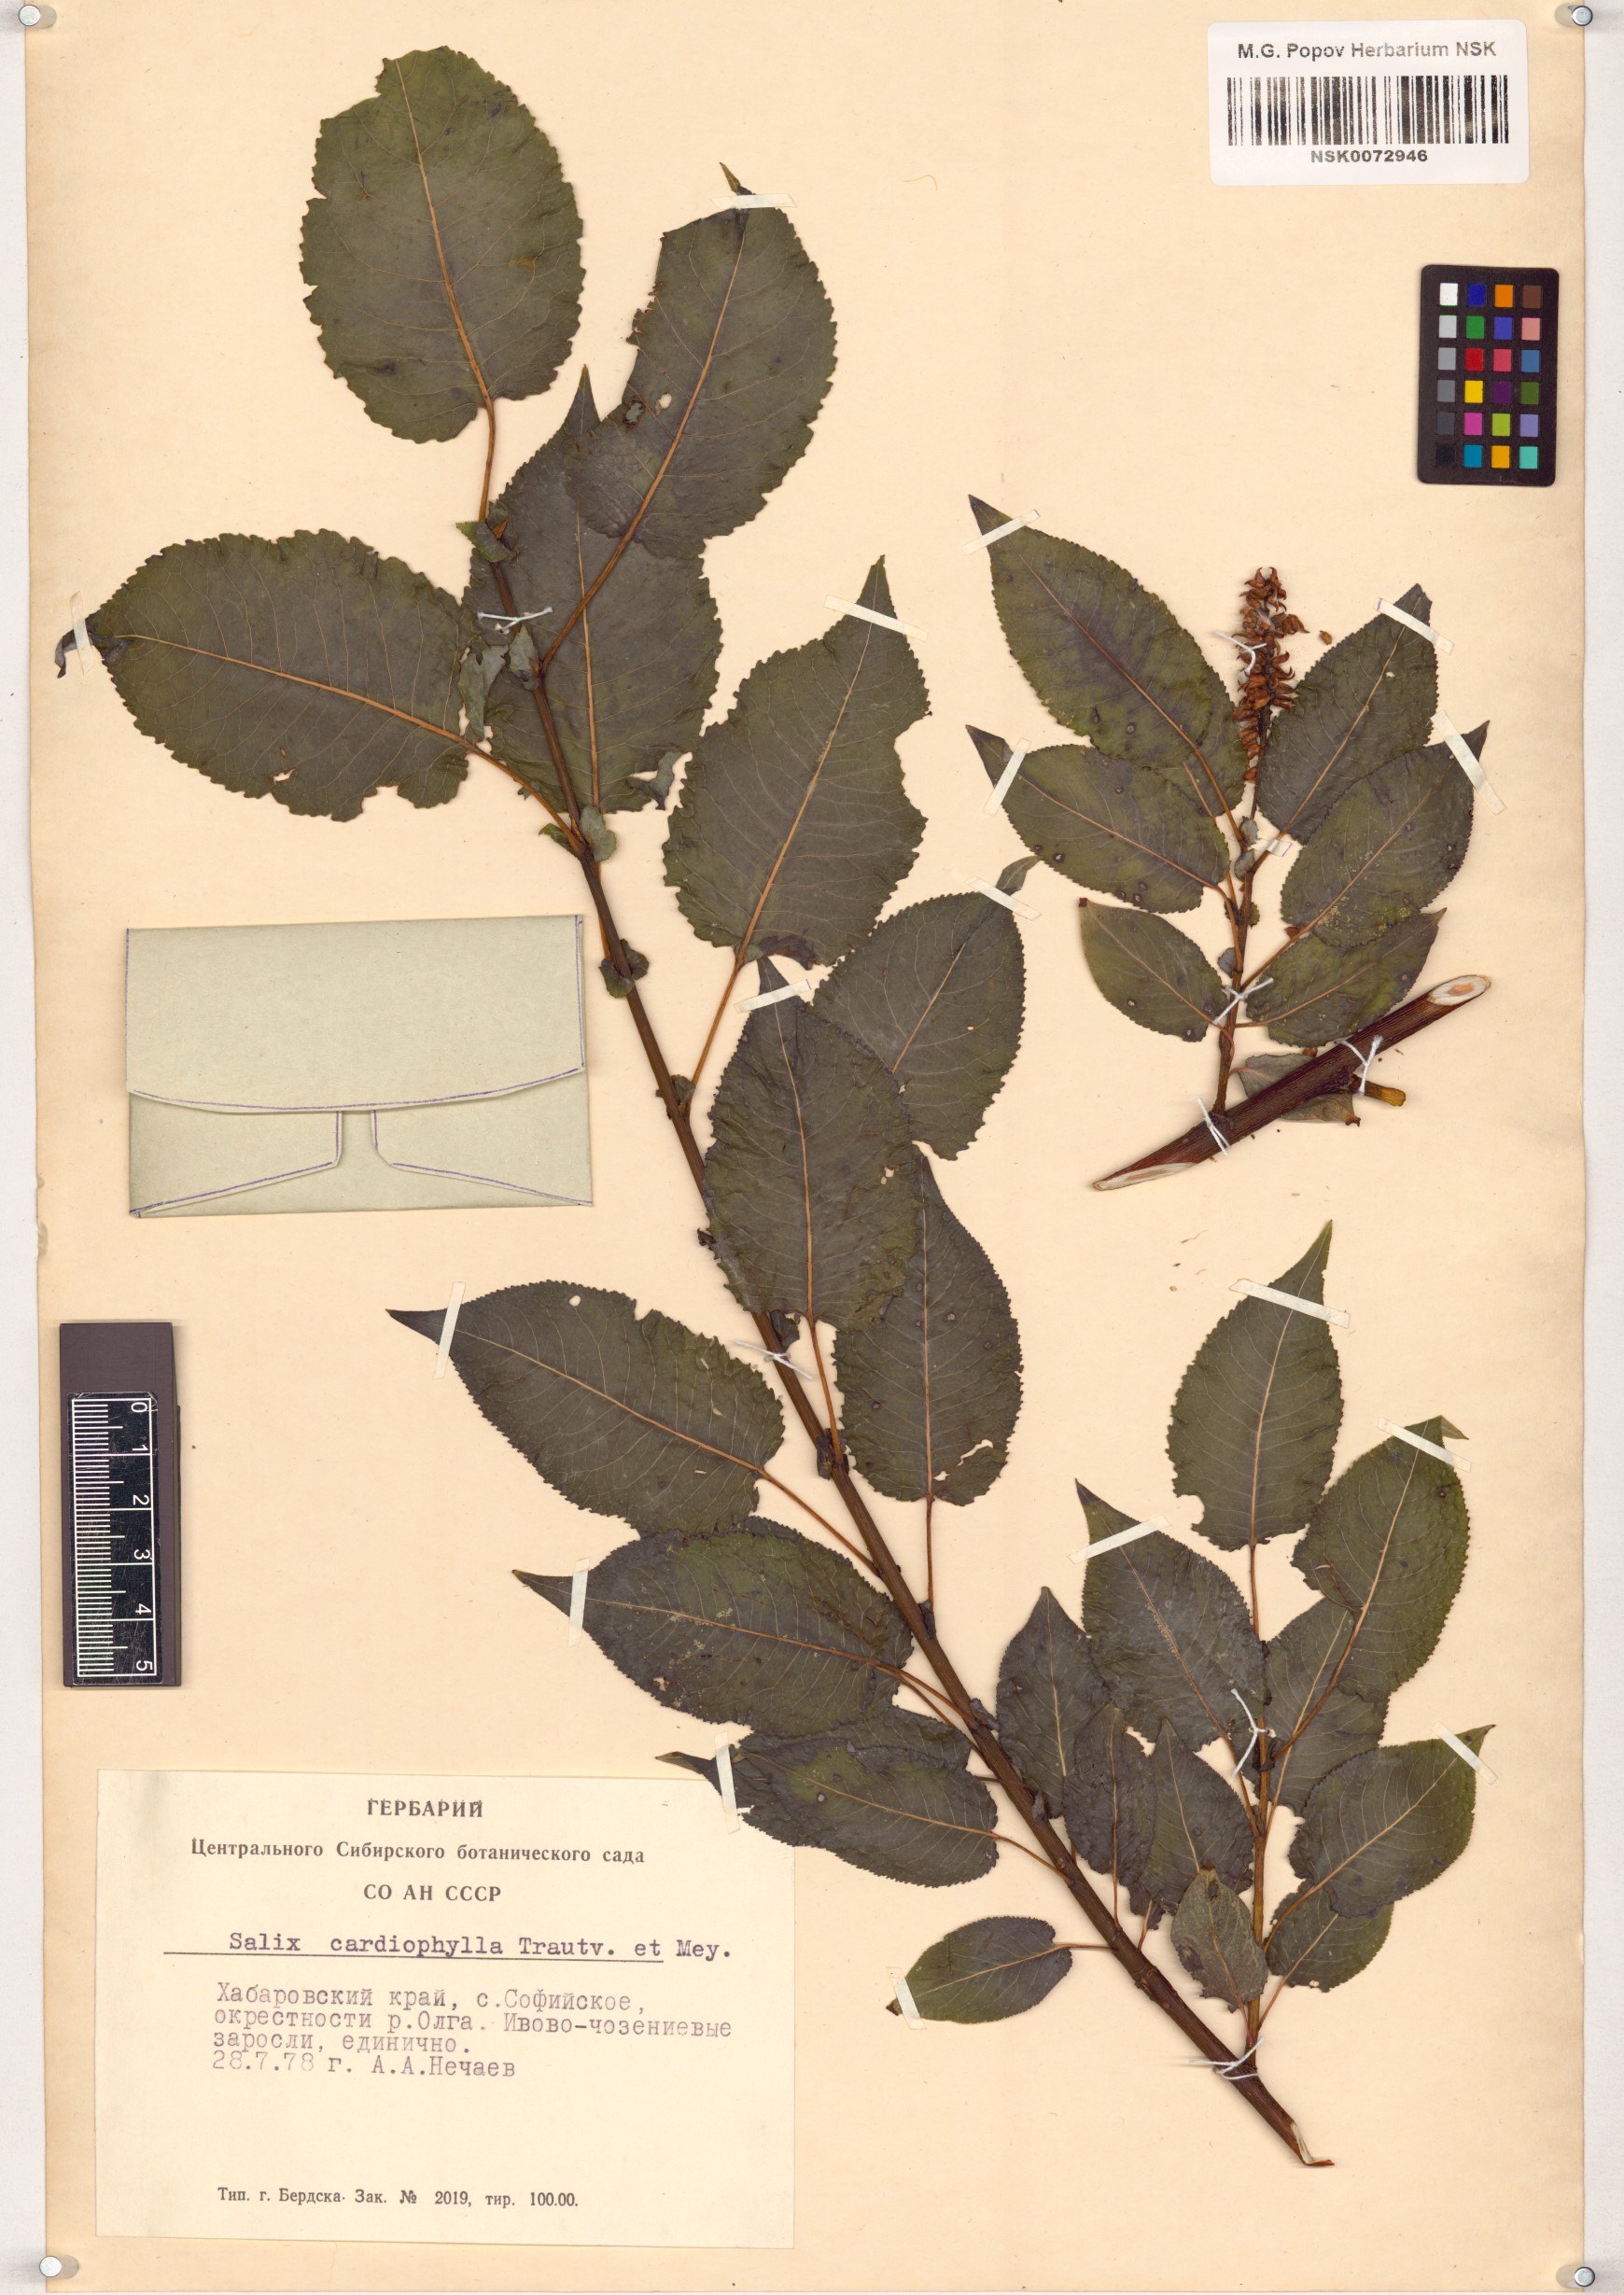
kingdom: Plantae
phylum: Tracheophyta
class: Magnoliopsida
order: Malpighiales
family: Salicaceae
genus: Chosenia
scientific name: Chosenia cardiophylla
